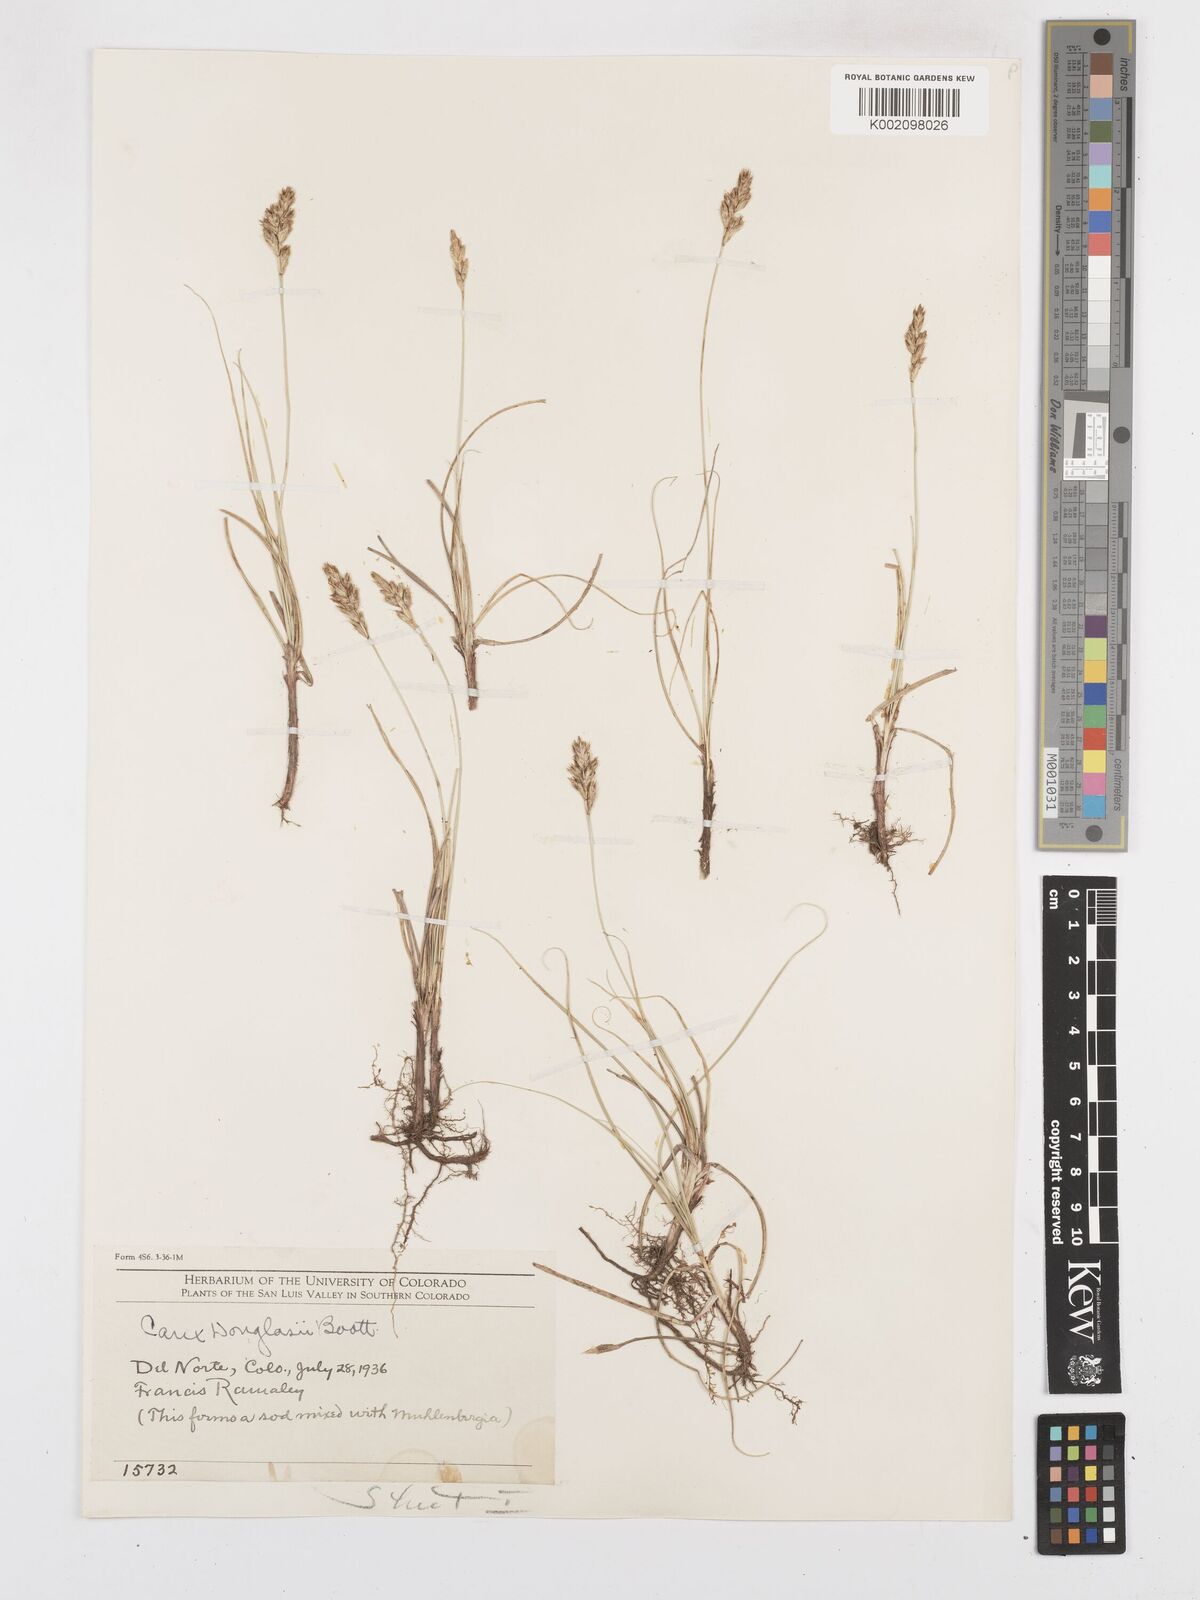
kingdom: Plantae
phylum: Tracheophyta
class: Liliopsida
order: Poales
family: Cyperaceae
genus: Carex
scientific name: Carex douglasii
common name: Douglas' sedge
